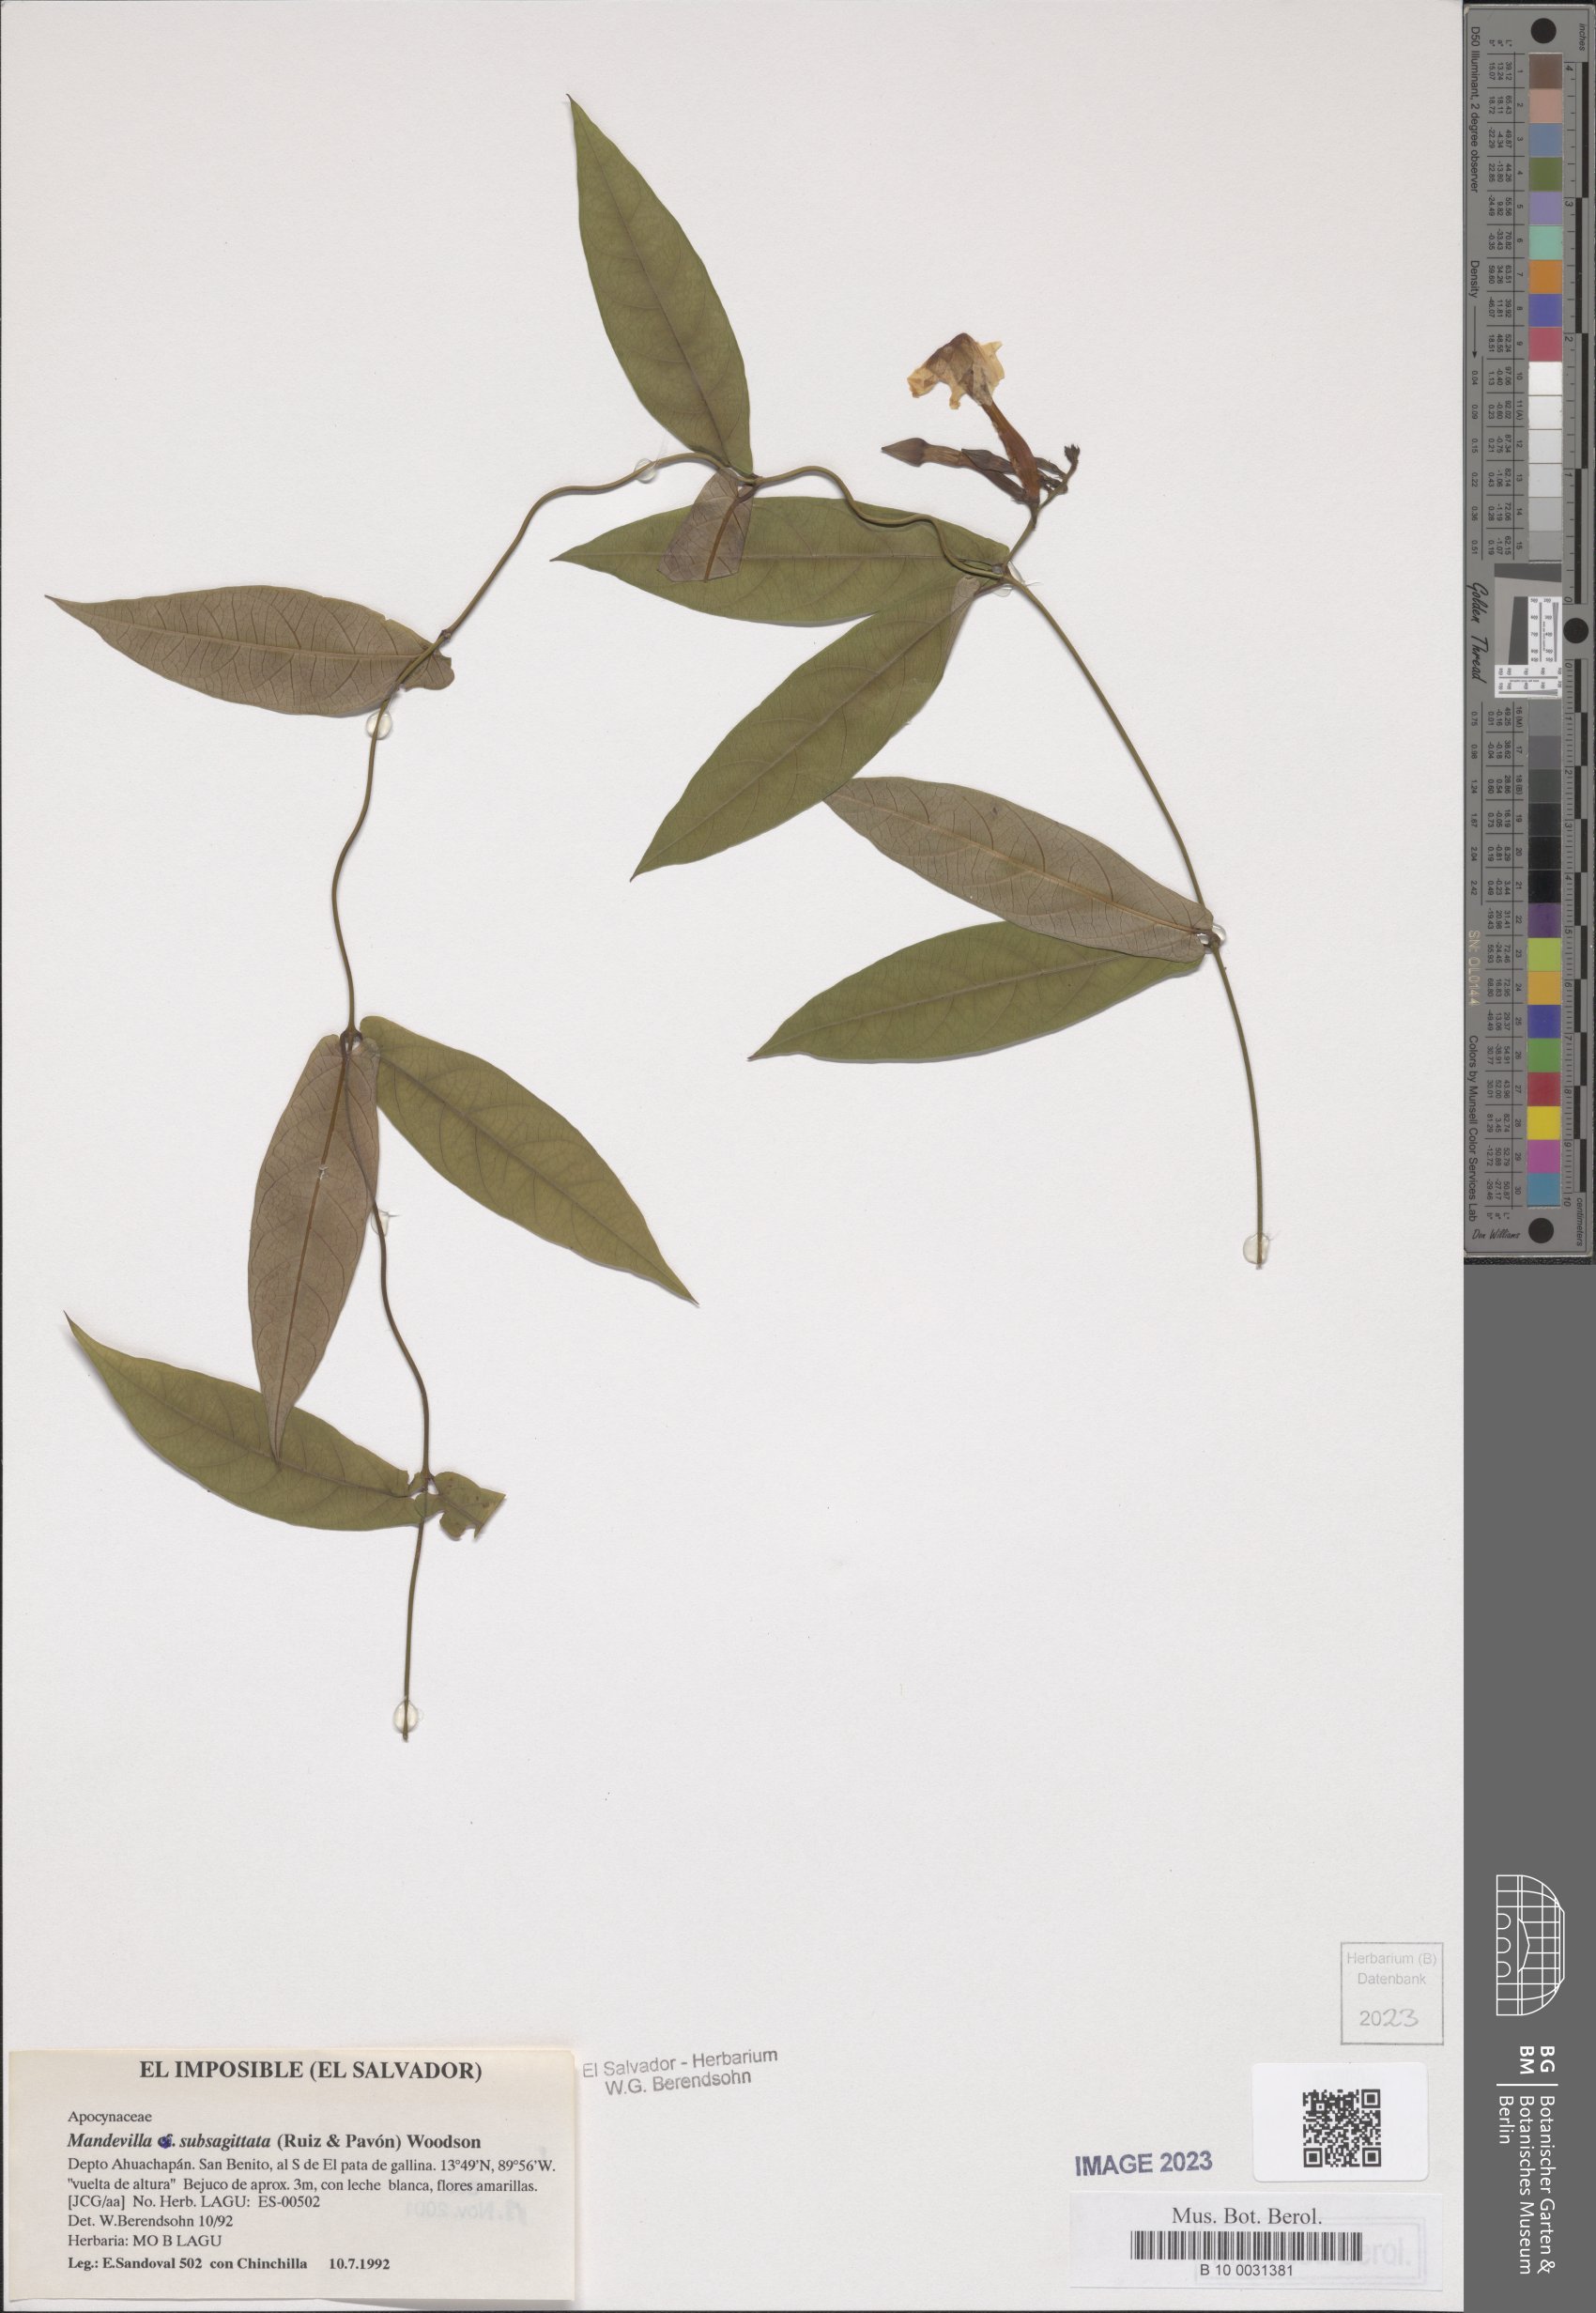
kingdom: Plantae
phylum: Tracheophyta
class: Magnoliopsida
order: Gentianales
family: Apocynaceae
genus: Mandevilla
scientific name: Mandevilla subsagittata
